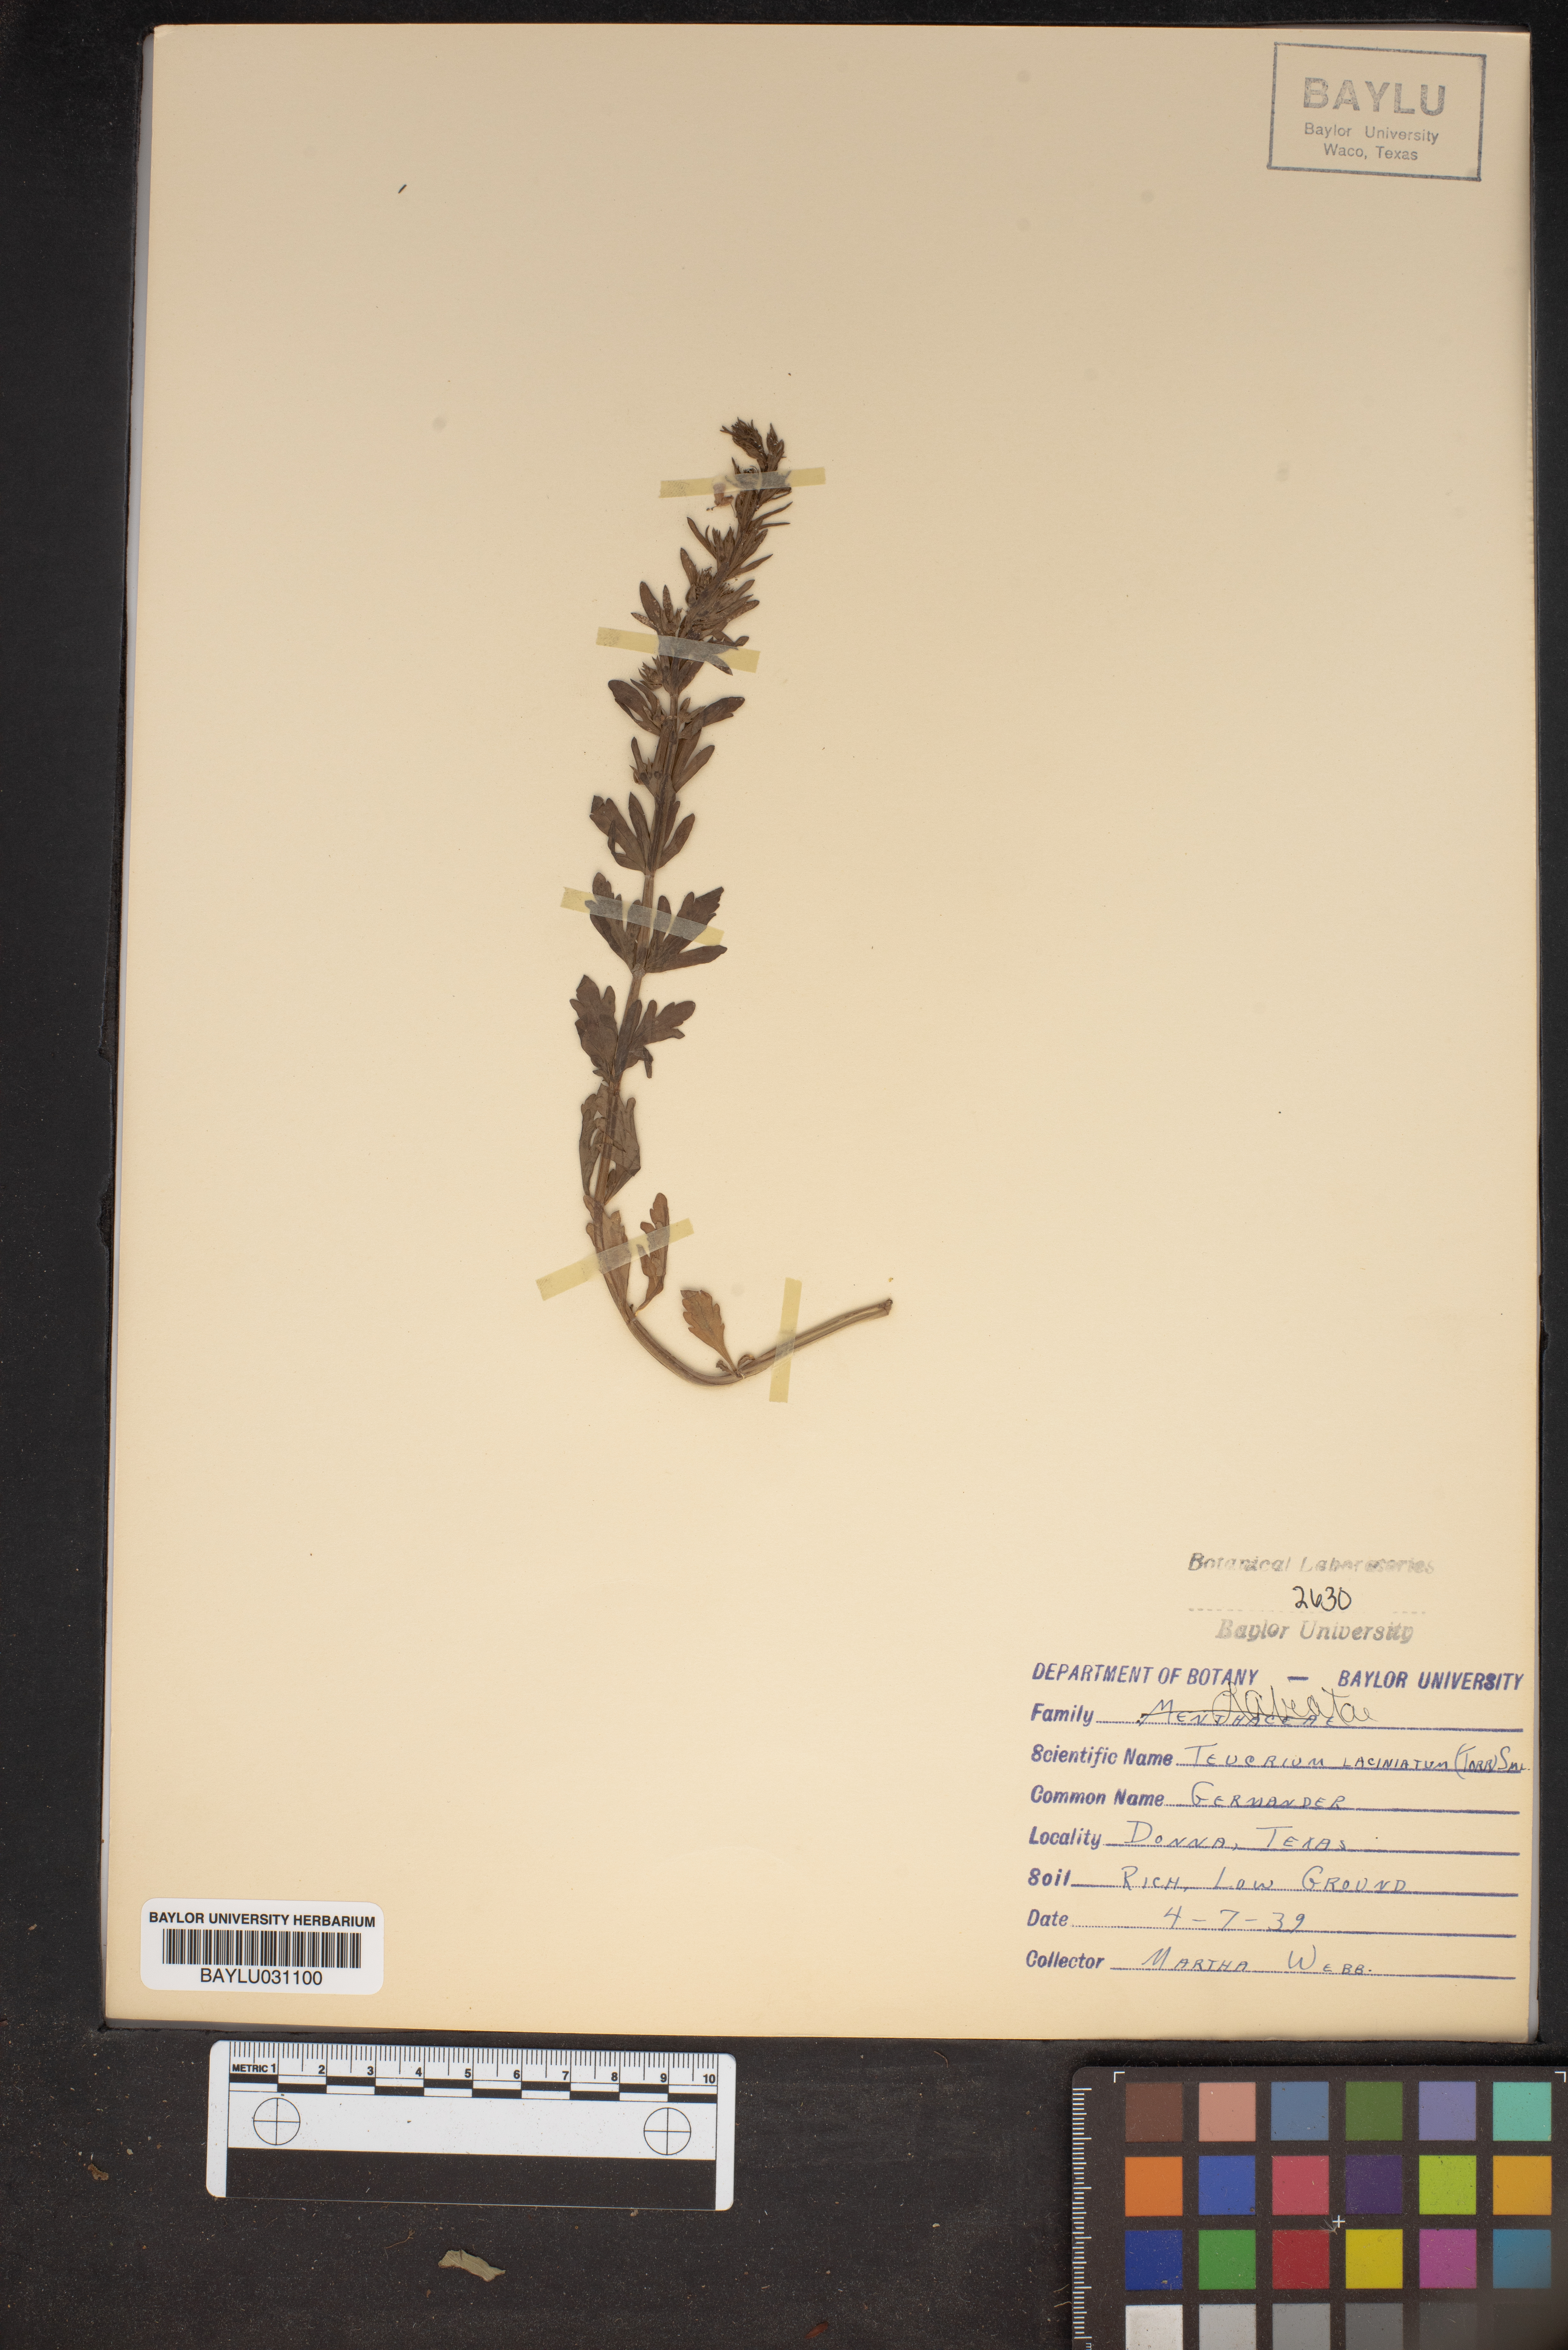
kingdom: Plantae
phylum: Tracheophyta
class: Magnoliopsida
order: Lamiales
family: Lamiaceae
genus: Teucrium
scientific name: Teucrium laciniatum
